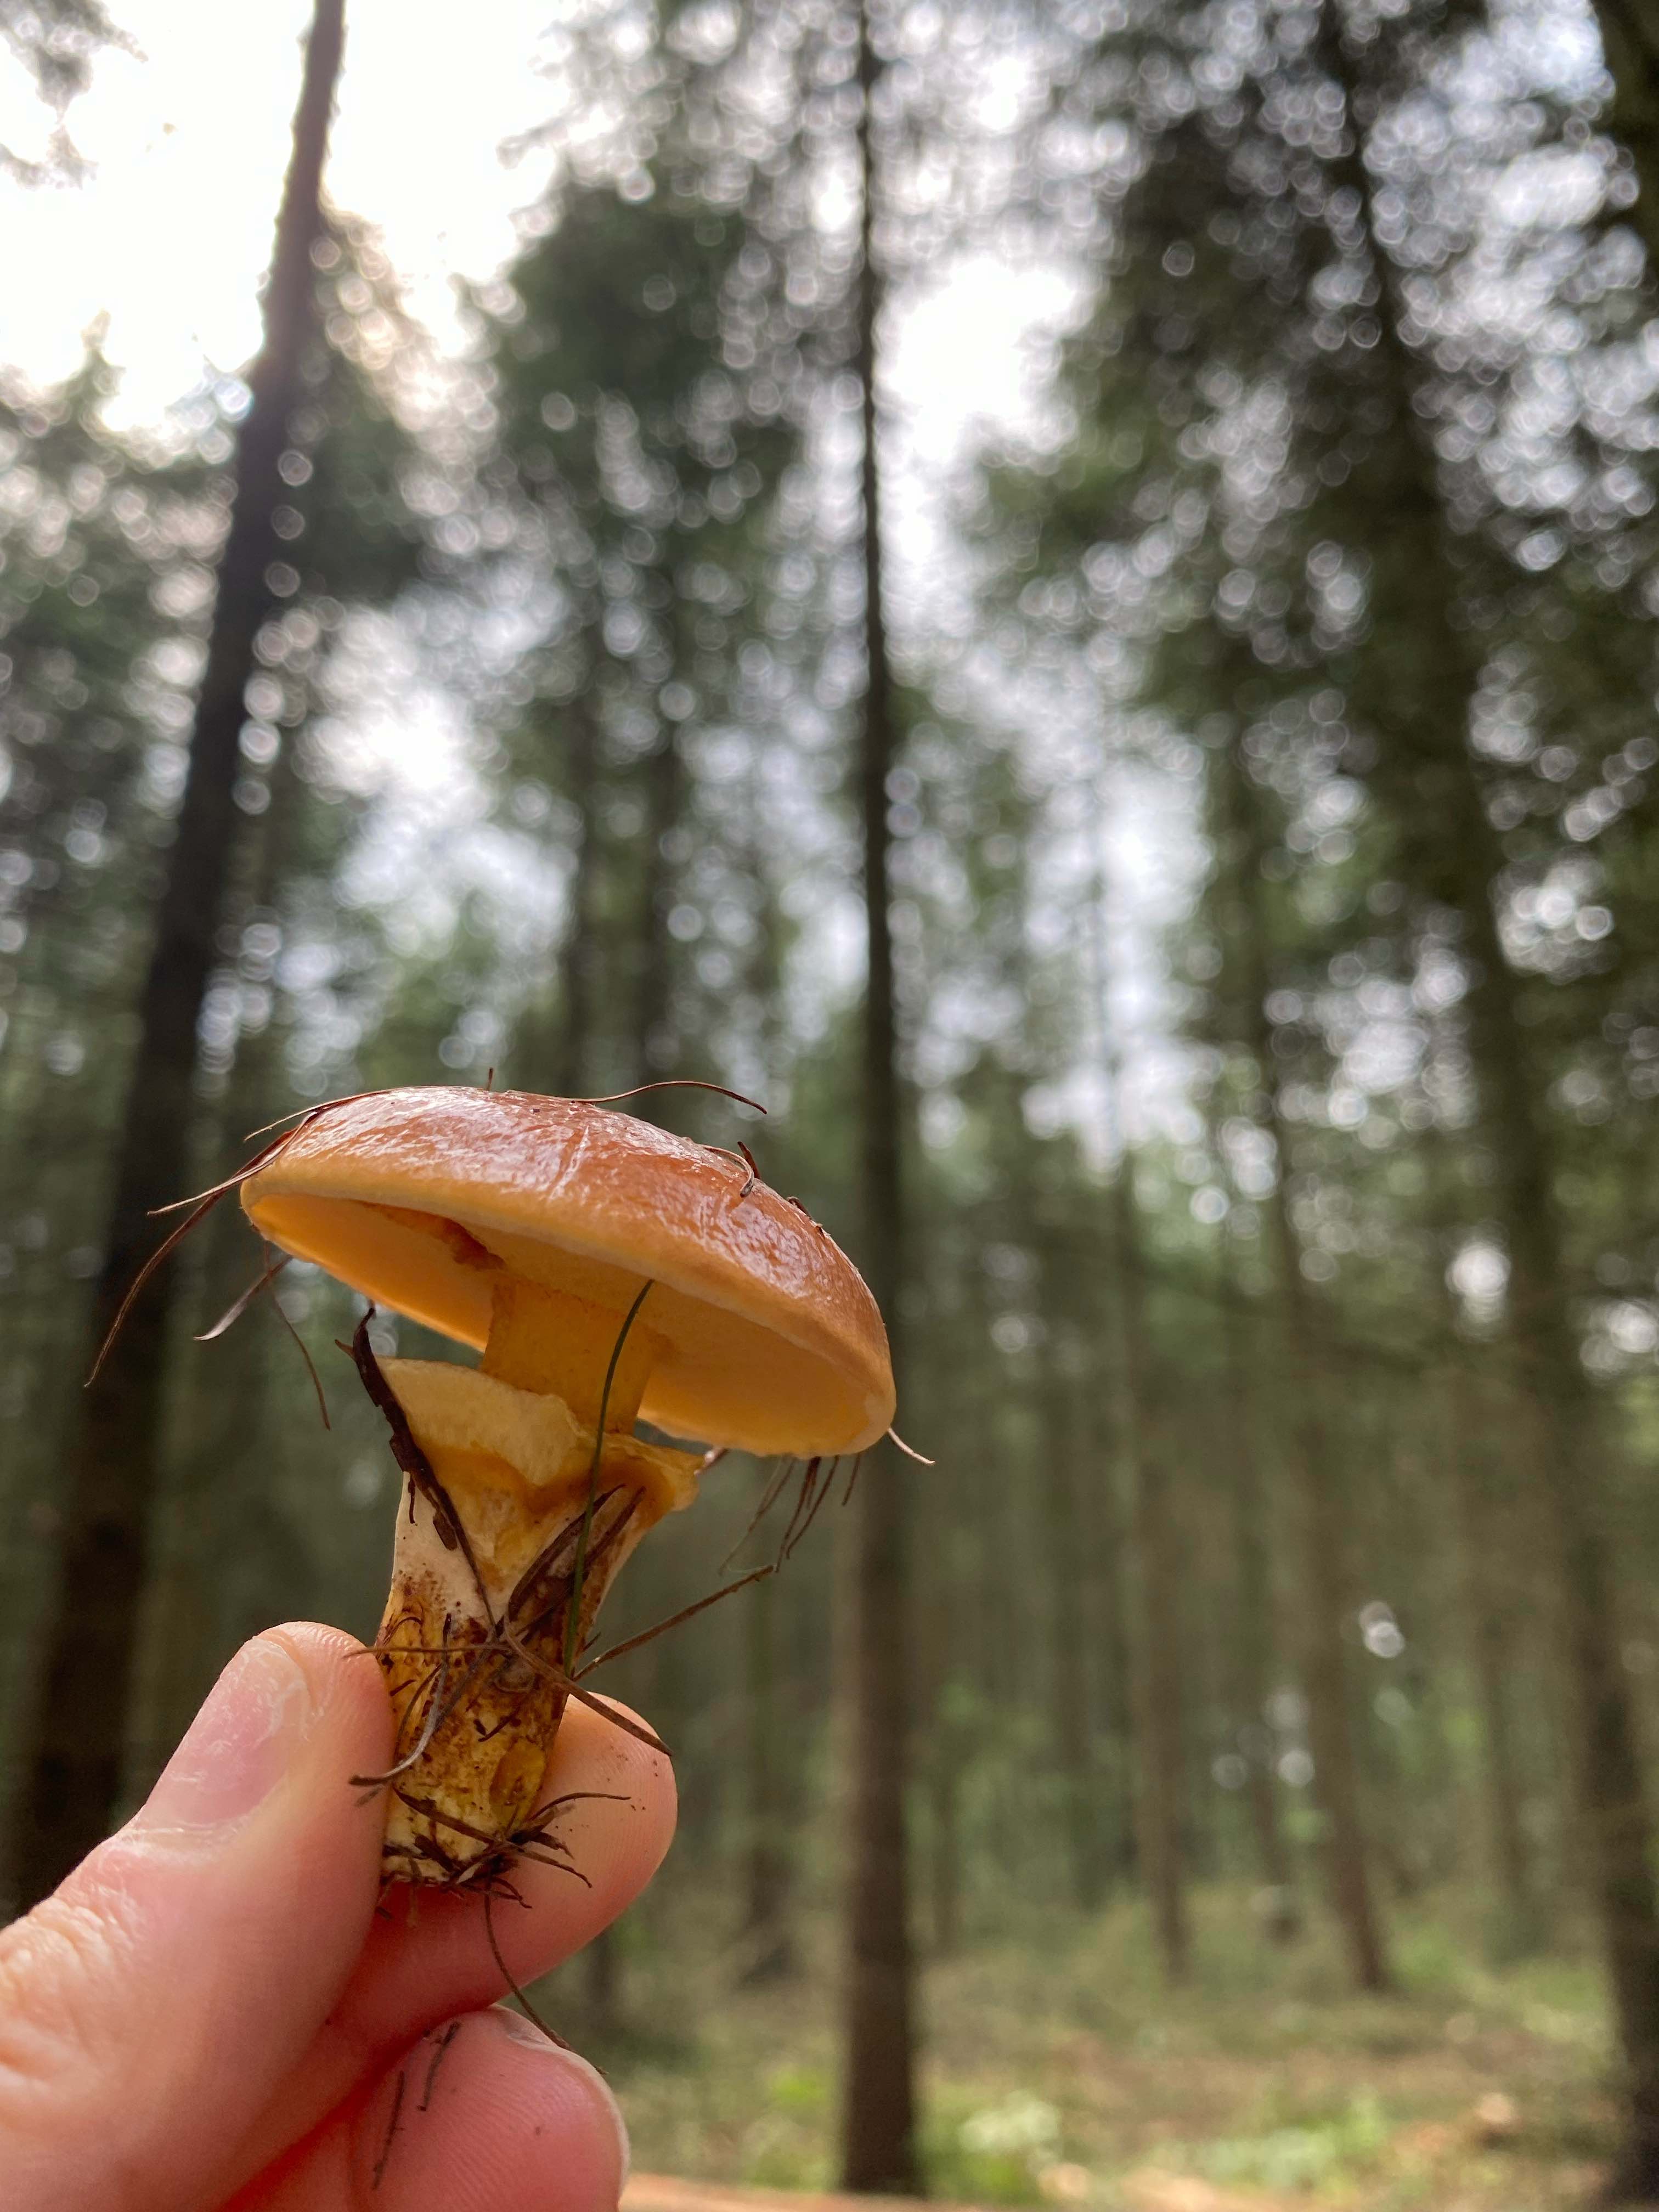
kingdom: Fungi
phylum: Basidiomycota
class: Agaricomycetes
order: Boletales
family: Suillaceae
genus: Suillus
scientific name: Suillus grevillei
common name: lærke-slimrørhat
